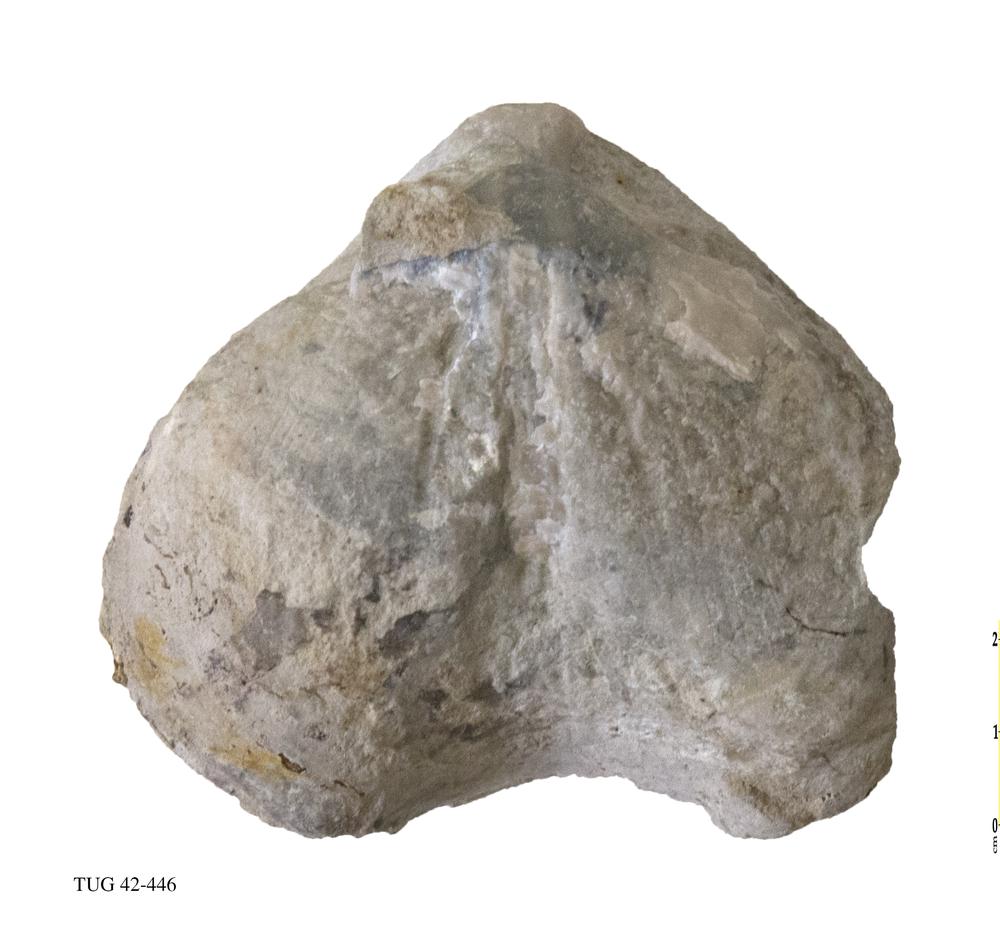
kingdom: Animalia
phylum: Brachiopoda
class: Rhynchonellata
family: Porambonitidae
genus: Porambonites
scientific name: Porambonites
